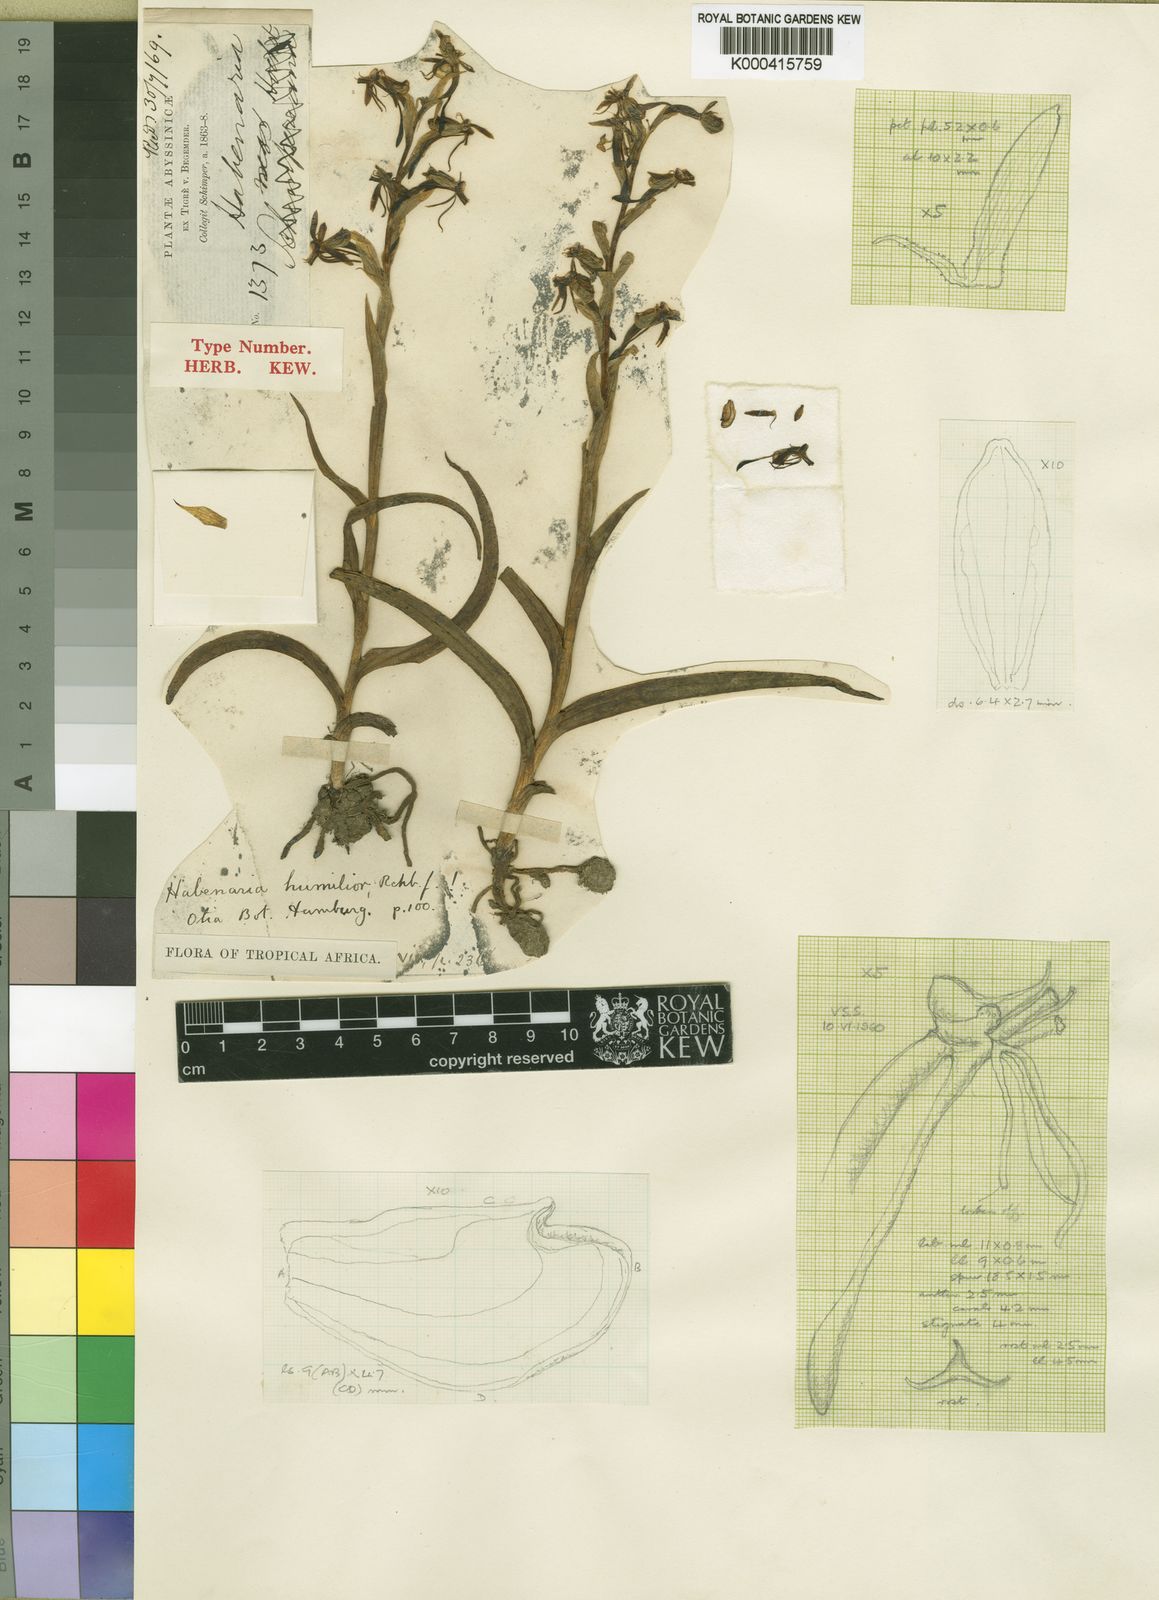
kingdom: Plantae
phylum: Tracheophyta
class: Liliopsida
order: Asparagales
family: Orchidaceae
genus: Habenaria
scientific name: Habenaria humilior
